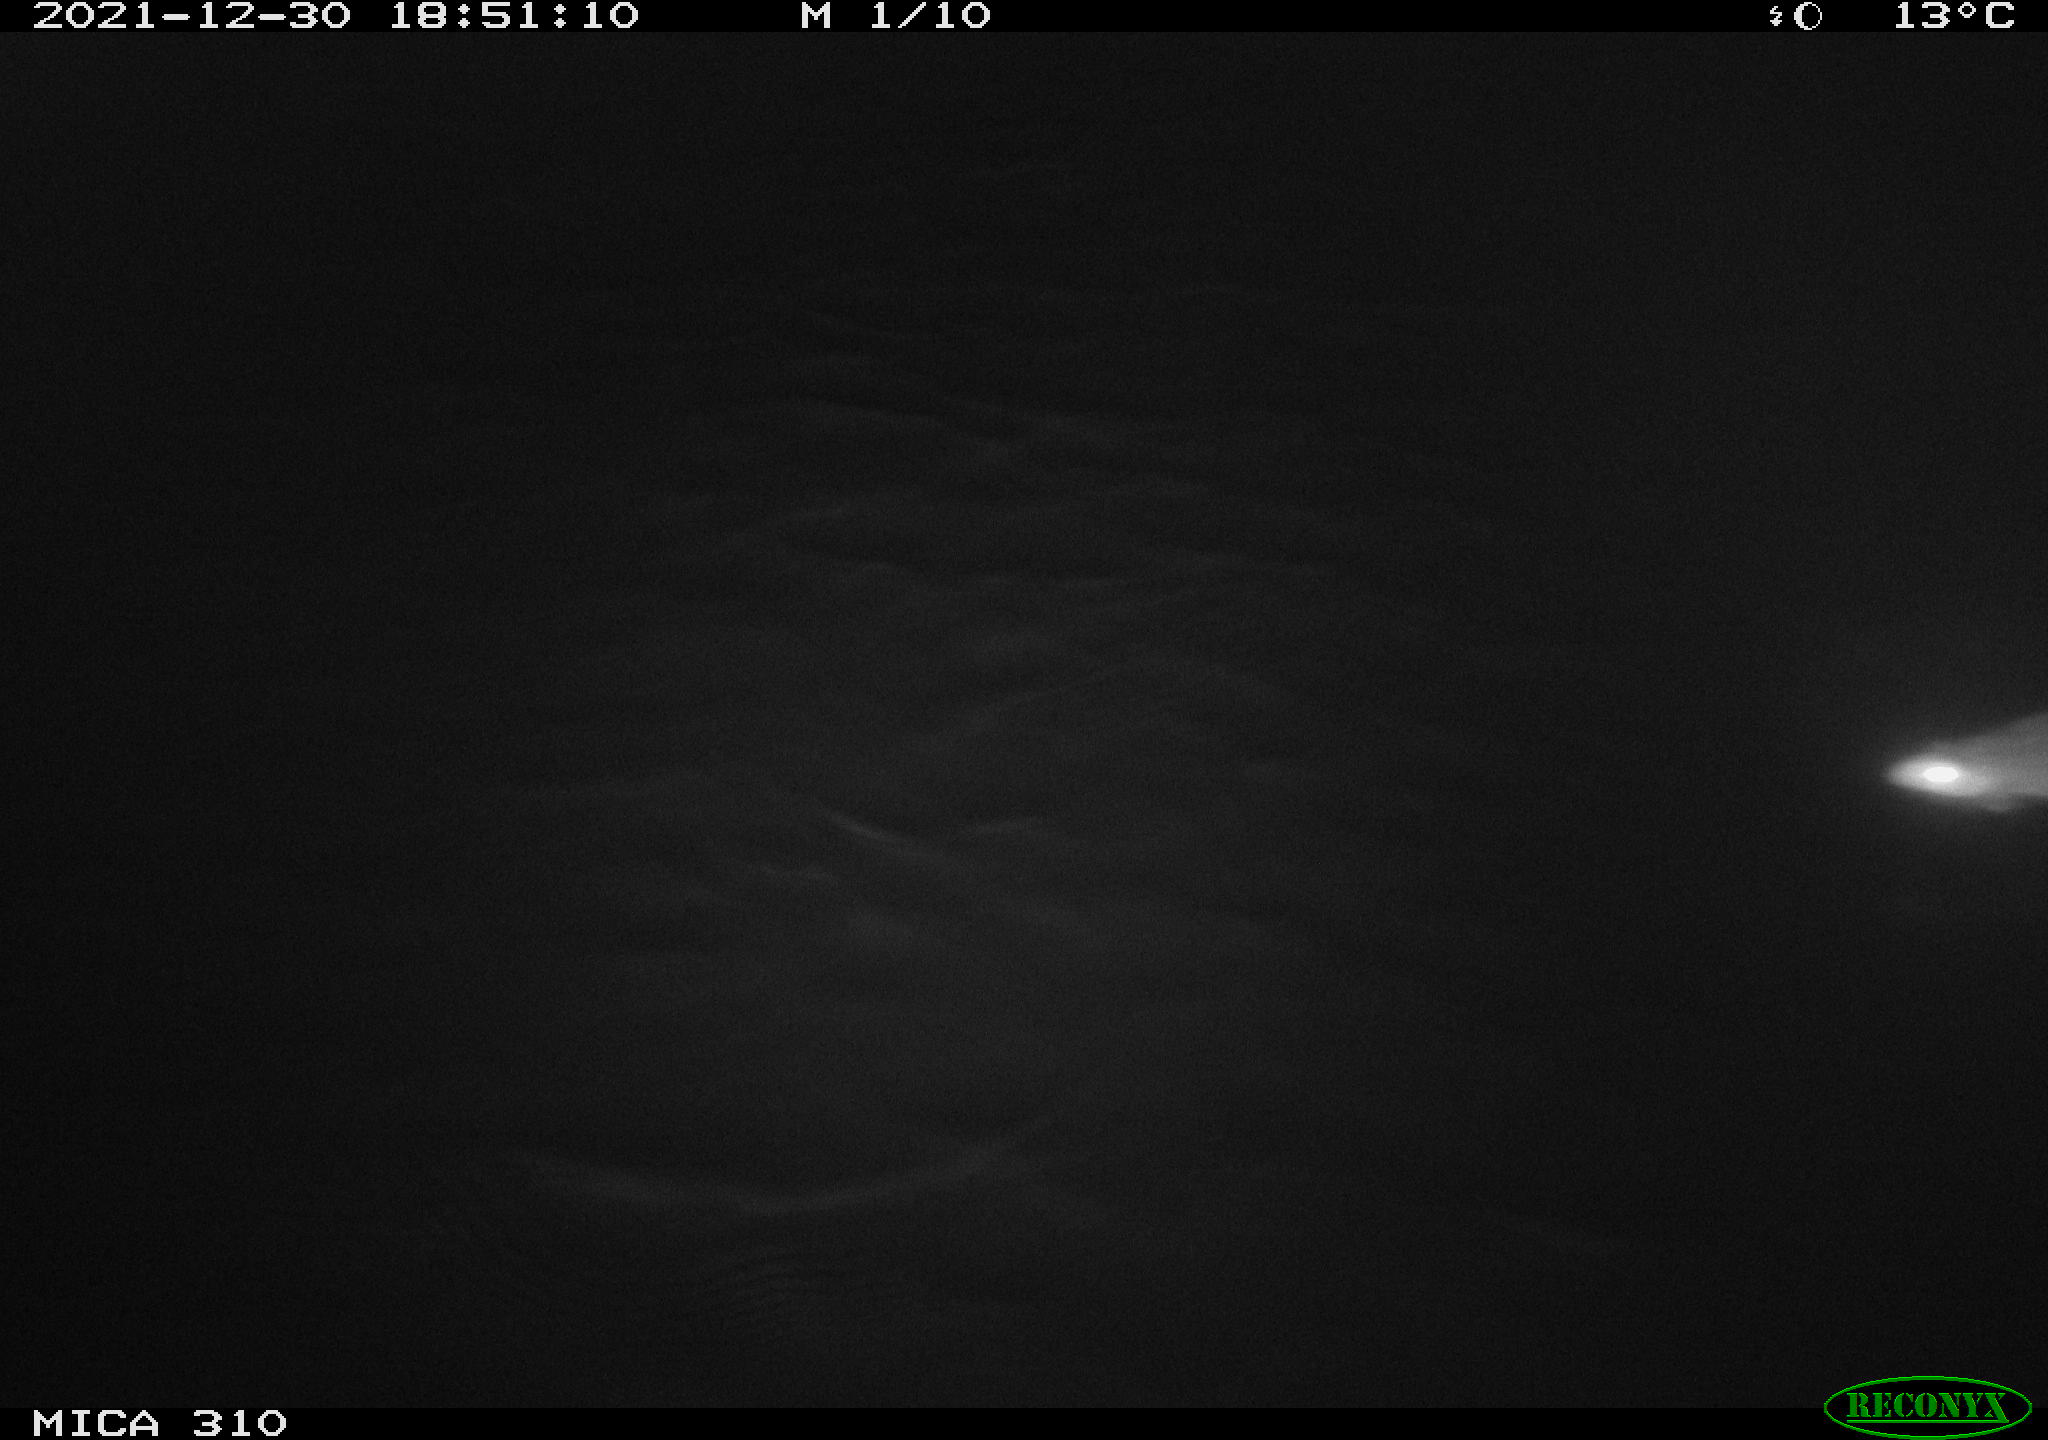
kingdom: Animalia
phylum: Chordata
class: Mammalia
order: Rodentia
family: Muridae
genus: Rattus
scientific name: Rattus norvegicus
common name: Brown rat
